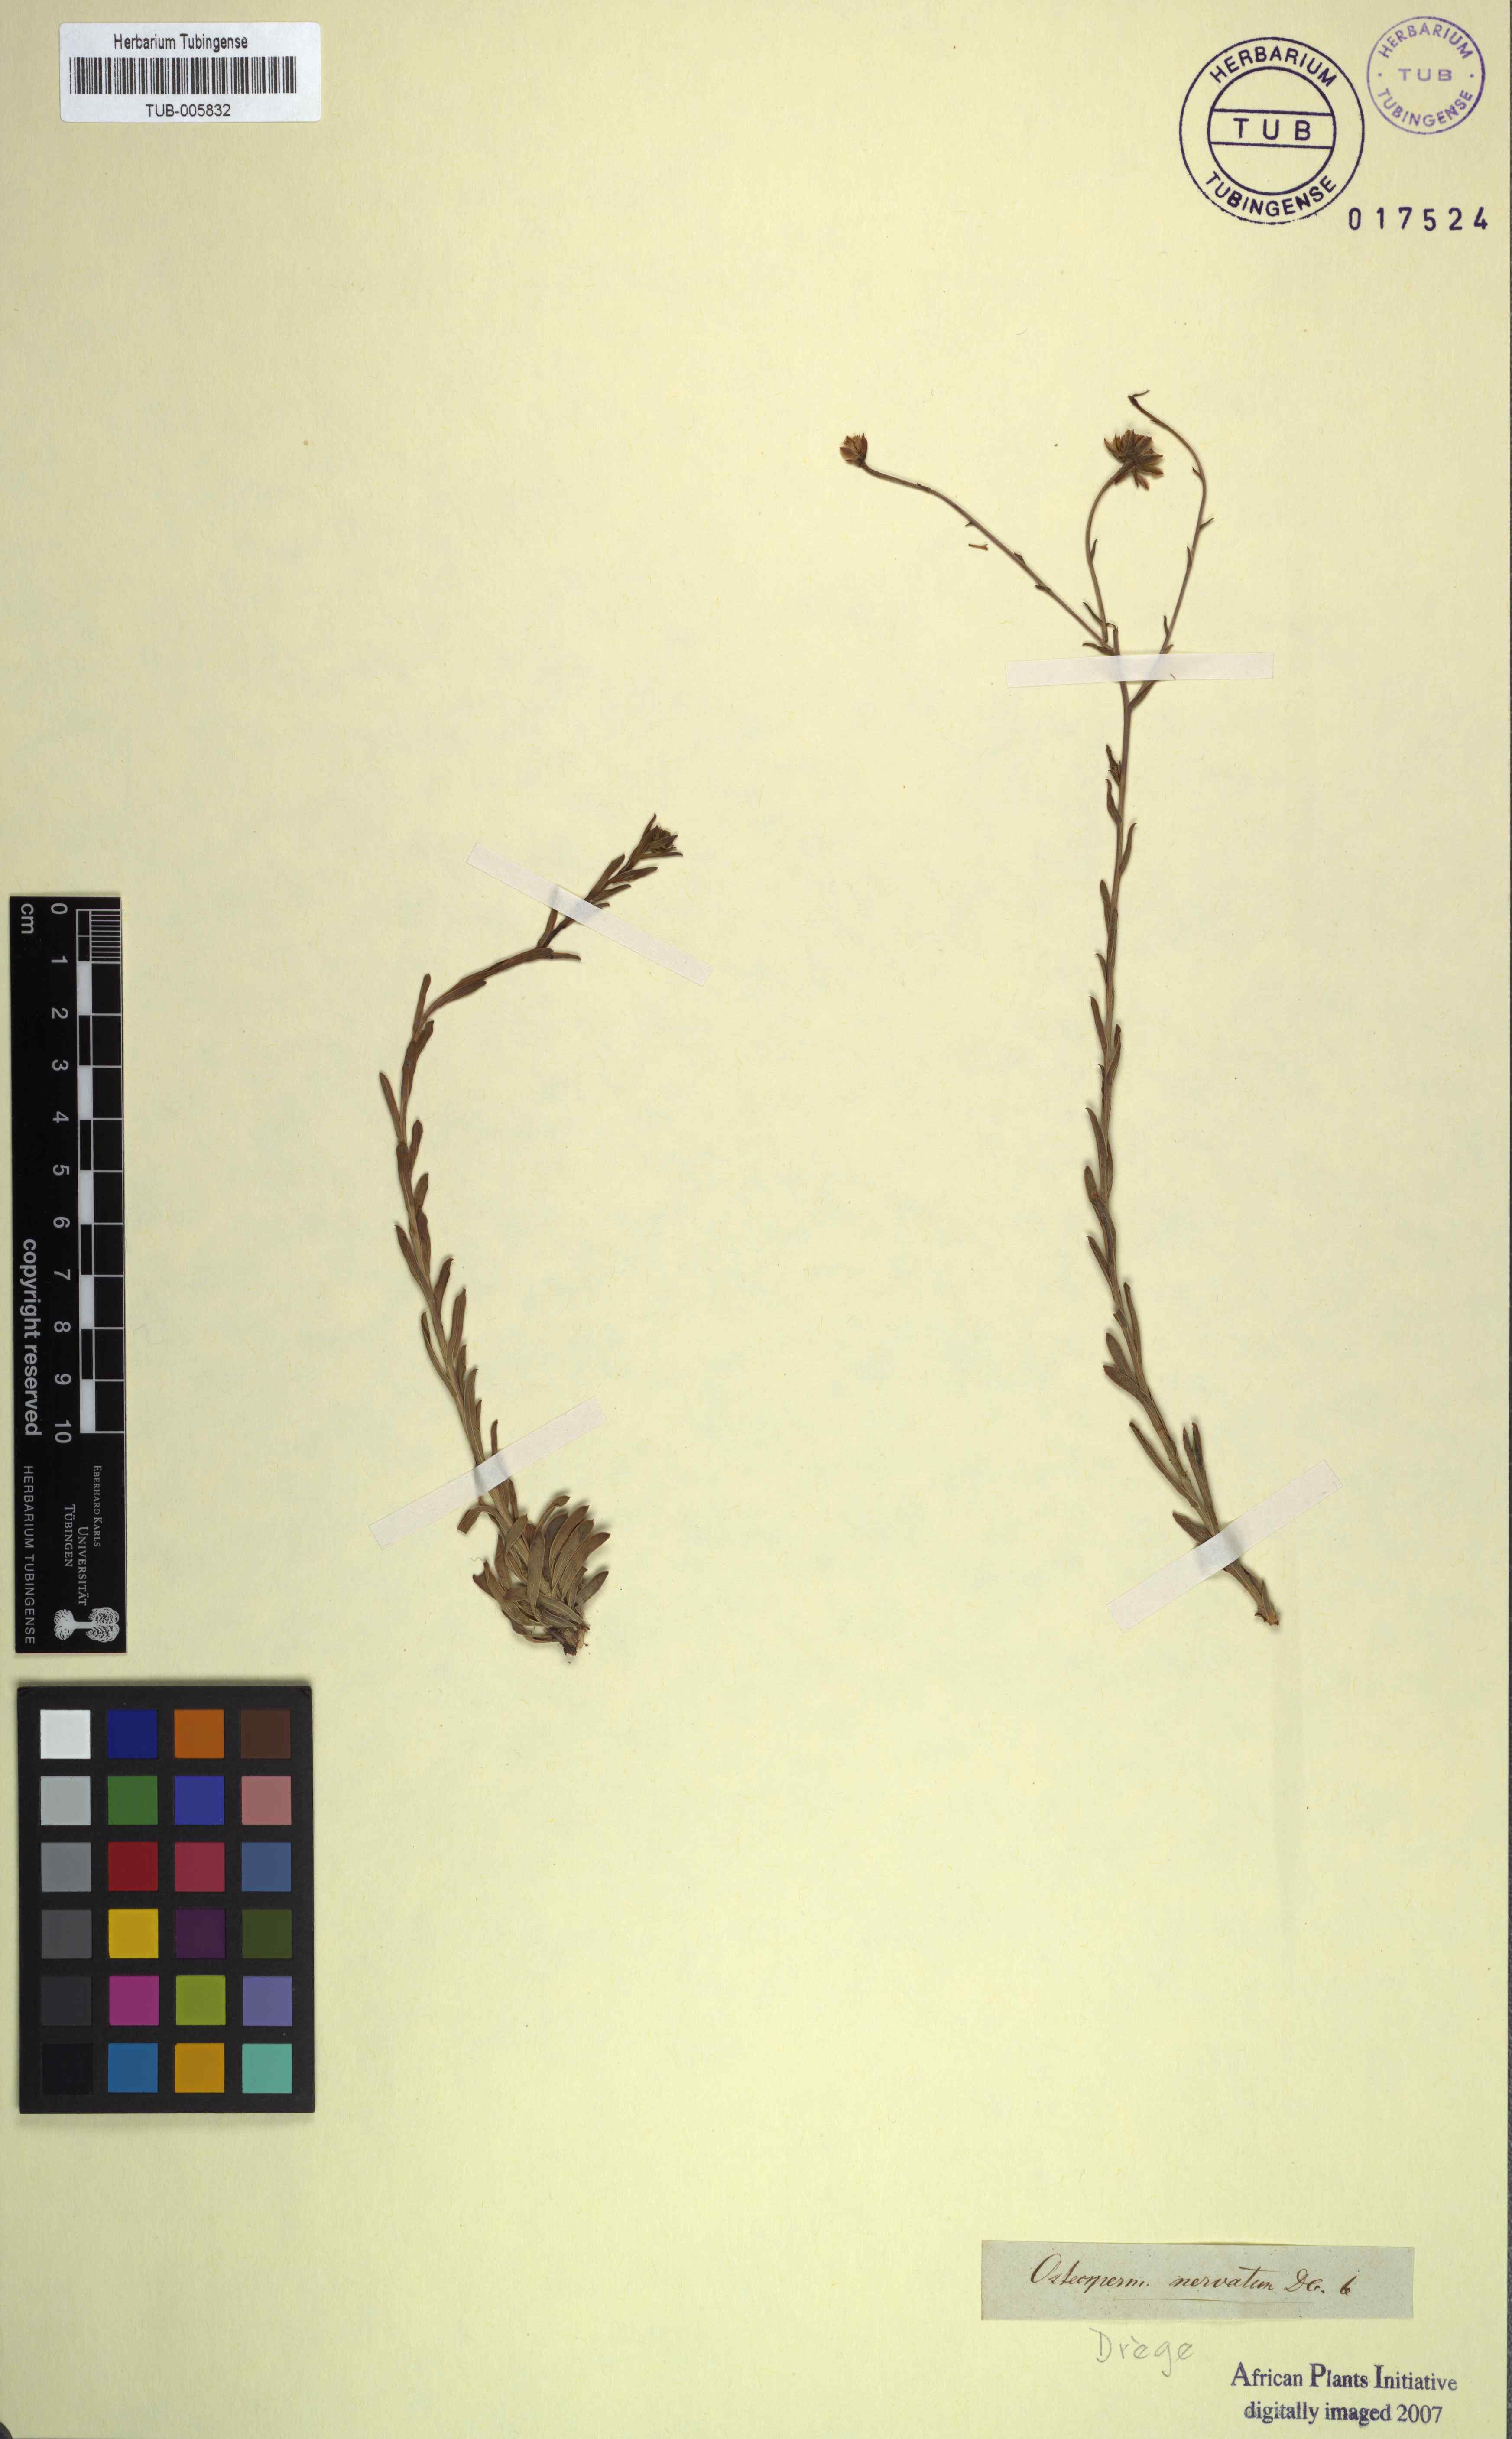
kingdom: Plantae
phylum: Tracheophyta
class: Magnoliopsida
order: Asterales
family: Asteraceae
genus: Osteospermum
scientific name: Osteospermum imbricatum
